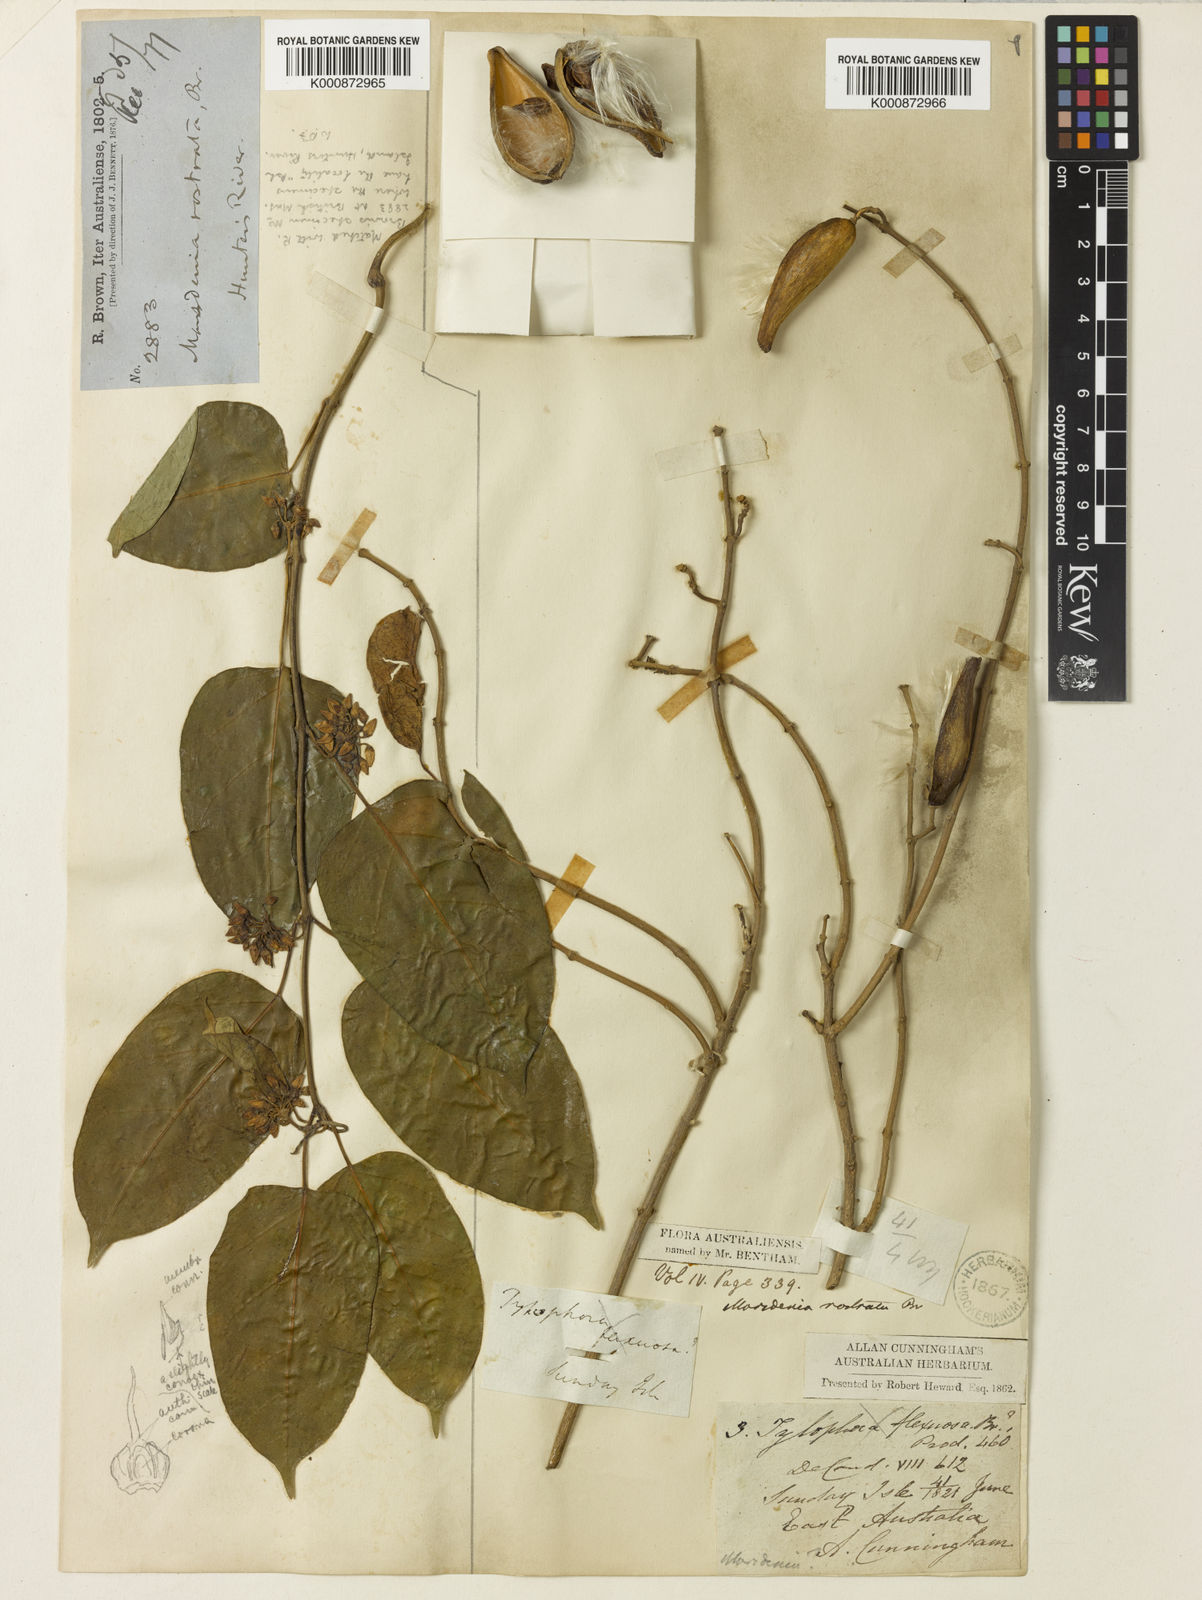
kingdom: Plantae
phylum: Tracheophyta
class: Magnoliopsida
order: Gentianales
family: Apocynaceae
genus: Leichhardtia
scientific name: Leichhardtia rostrata
